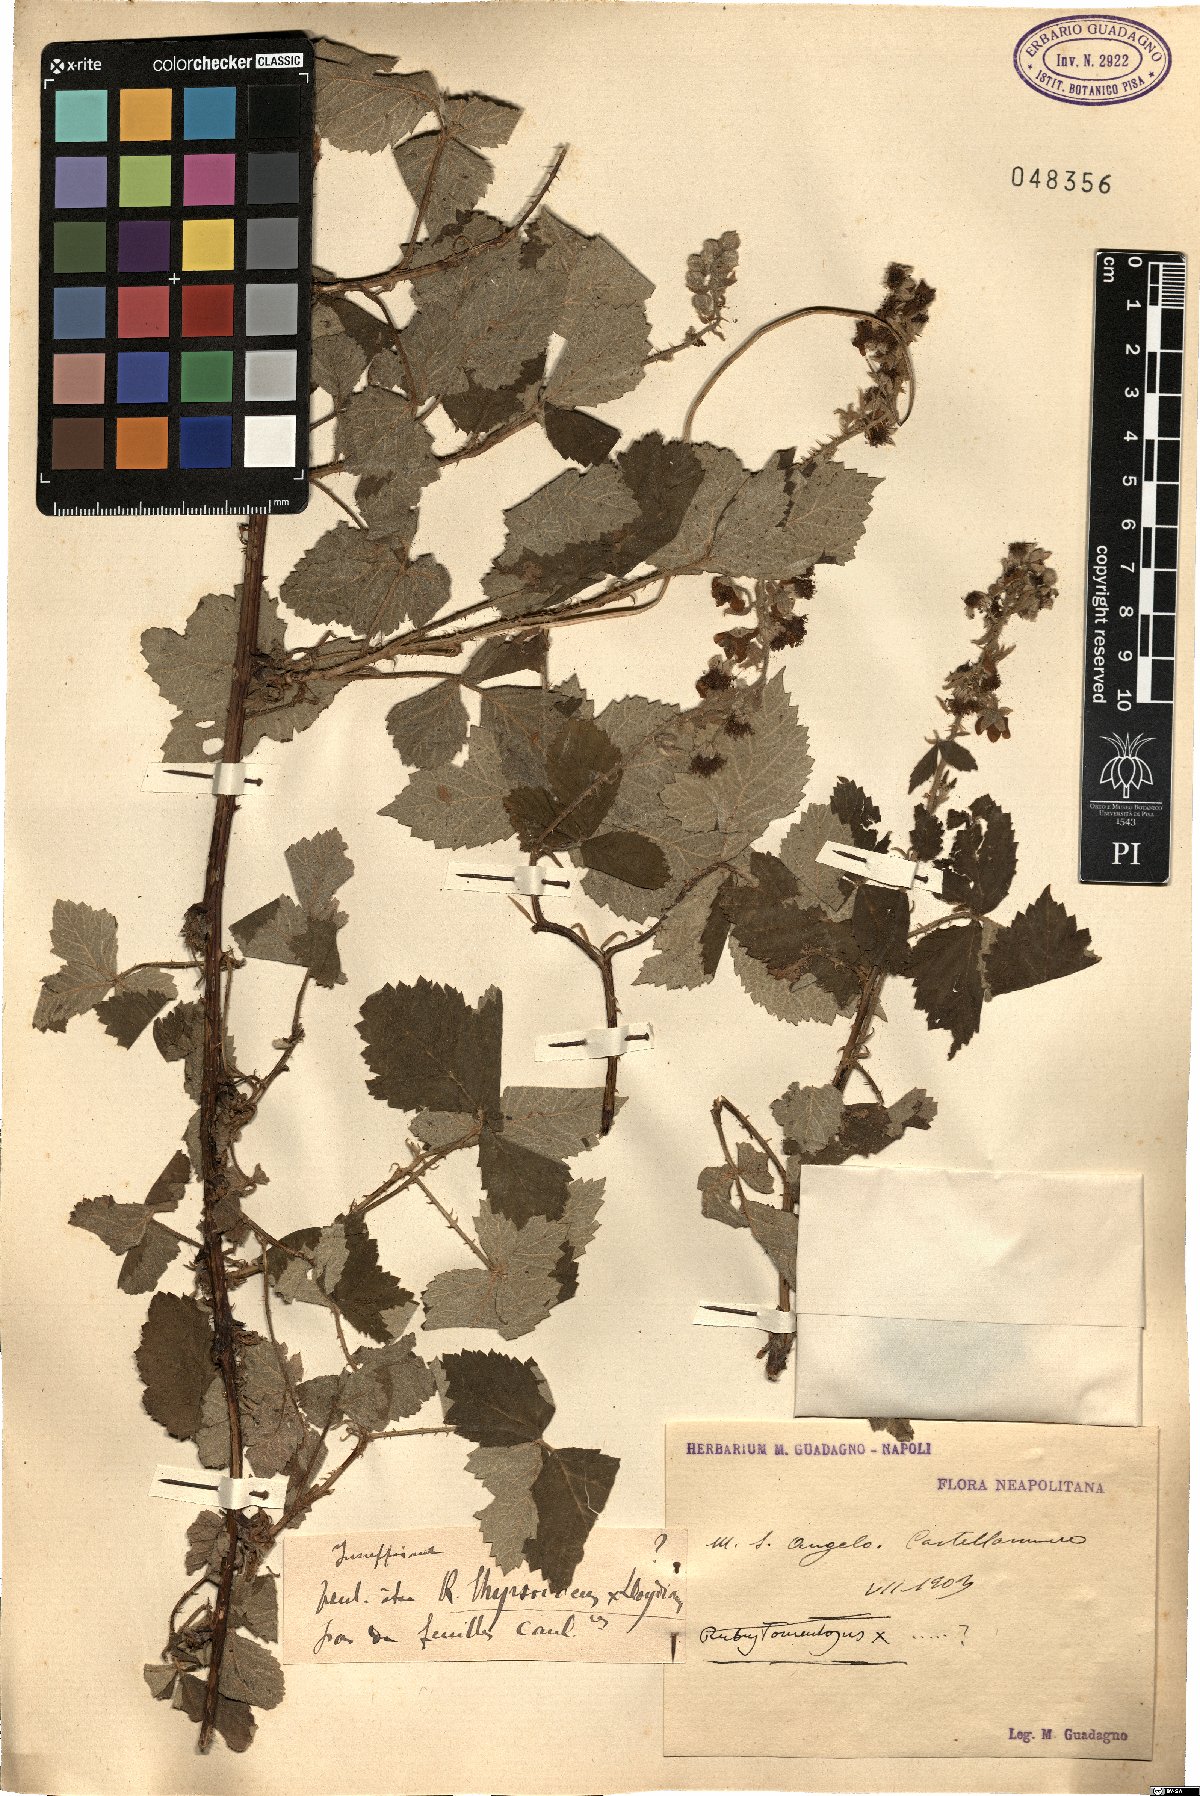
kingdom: Plantae
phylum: Tracheophyta
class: Magnoliopsida
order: Rosales
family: Rosaceae
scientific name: Rosaceae
